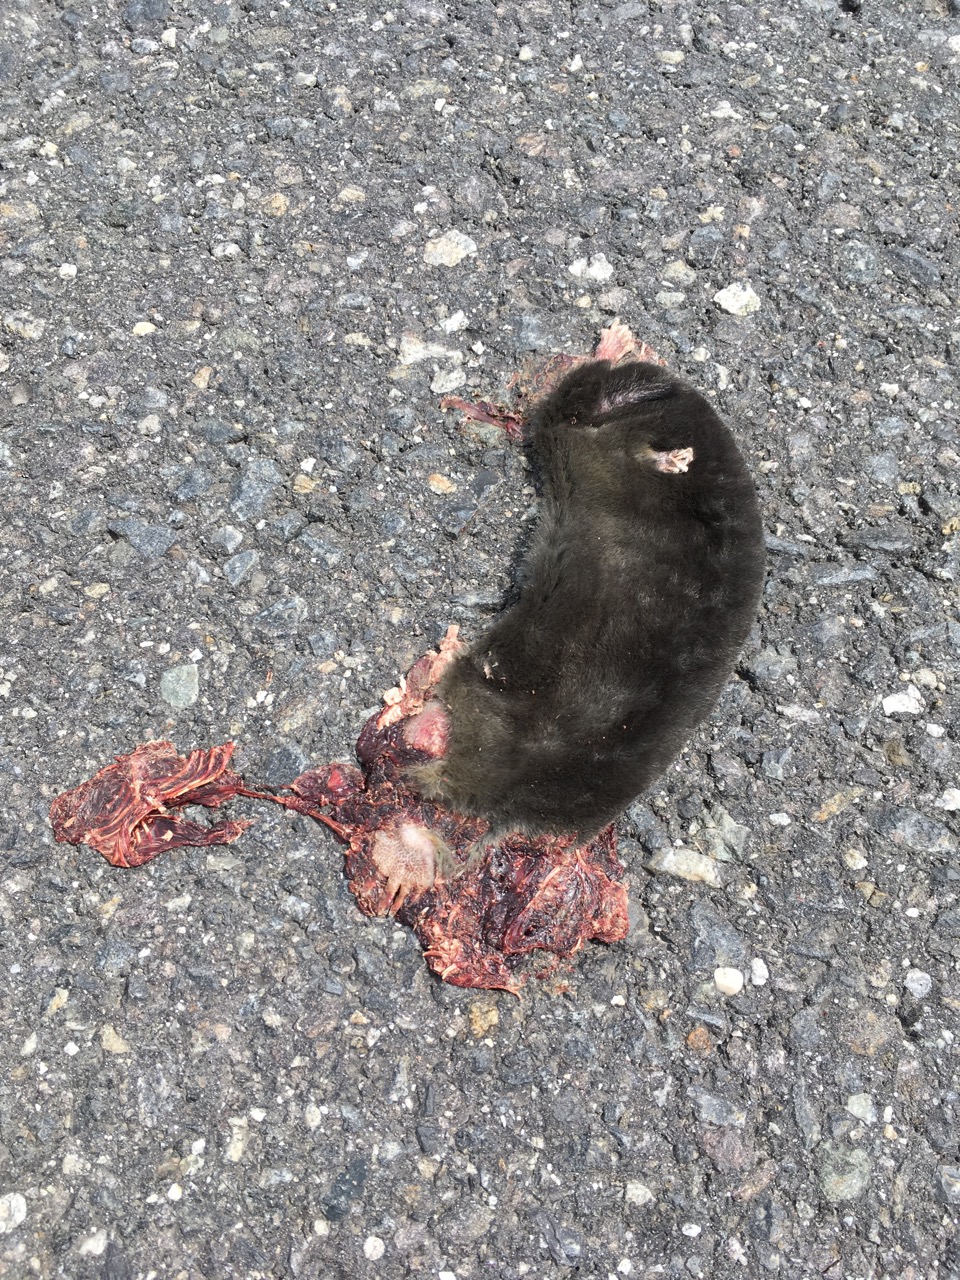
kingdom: Animalia
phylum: Chordata
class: Mammalia
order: Soricomorpha
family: Talpidae
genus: Talpa
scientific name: Talpa europaea
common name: European mole
